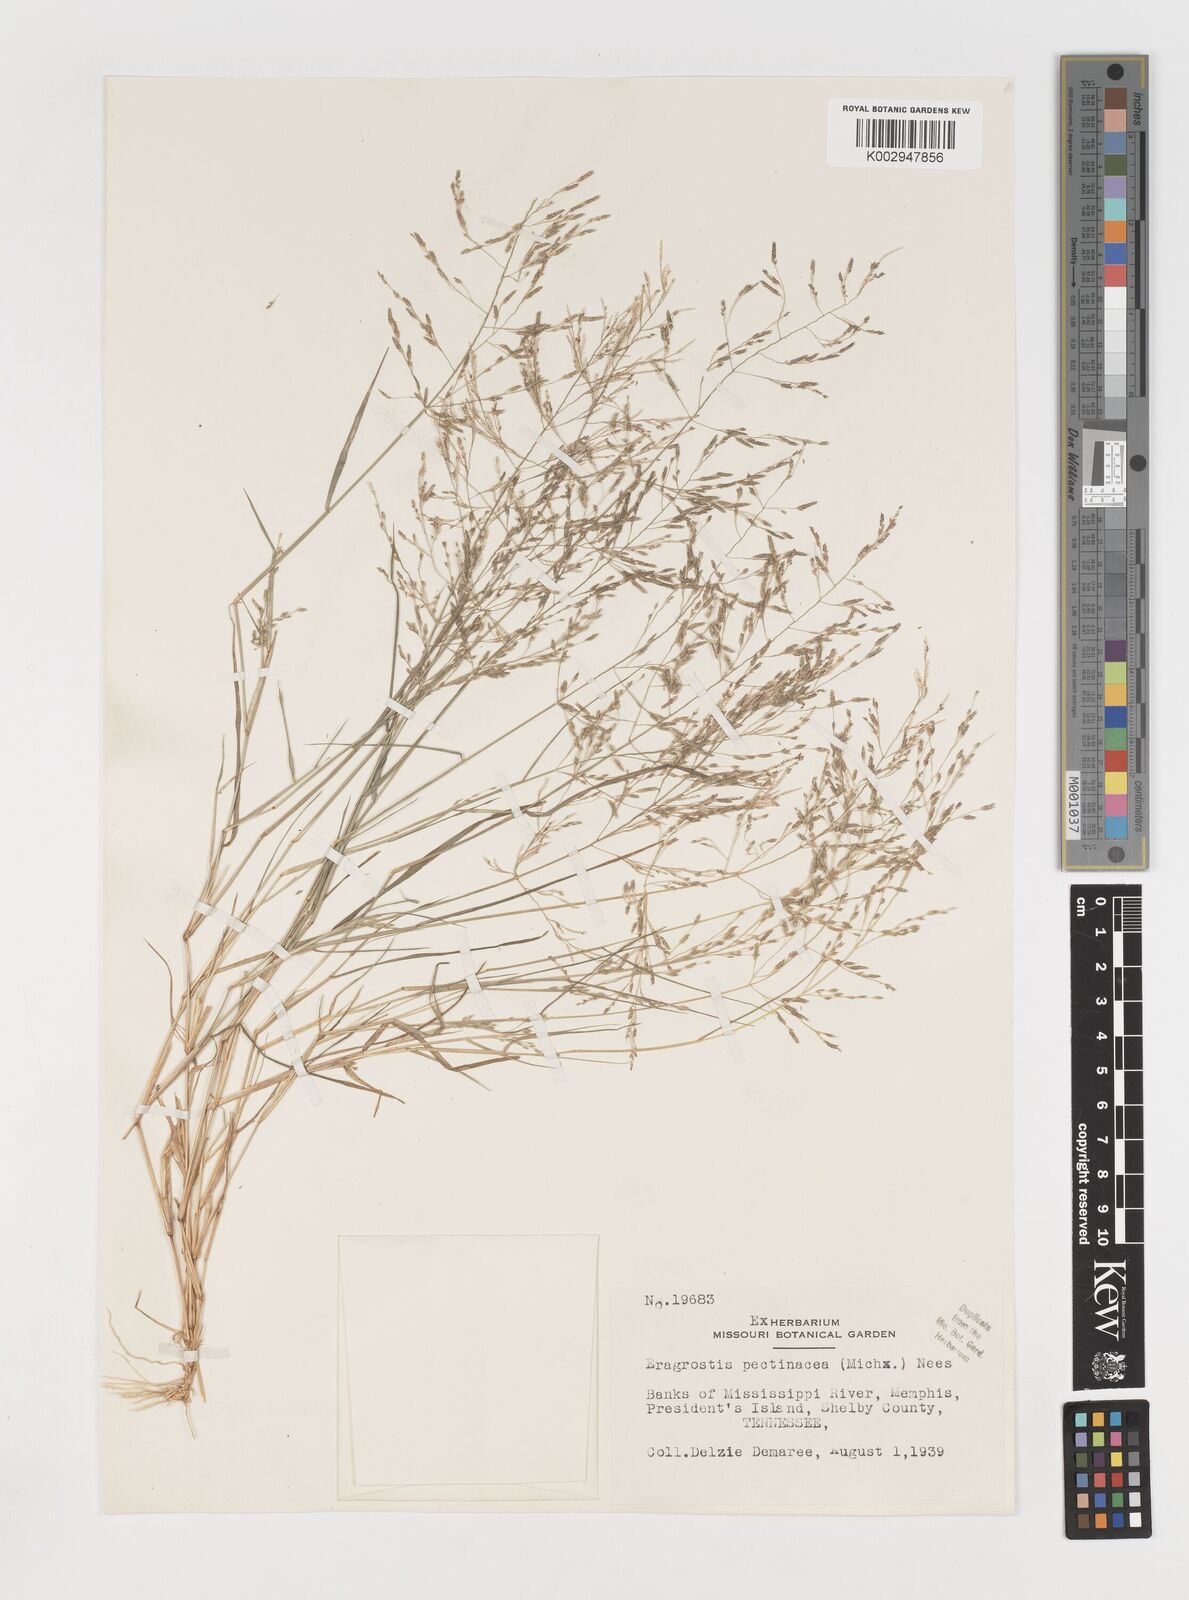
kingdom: Plantae
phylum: Tracheophyta
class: Liliopsida
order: Poales
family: Poaceae
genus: Eragrostis
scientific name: Eragrostis pectinacea
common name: Tufted lovegrass
